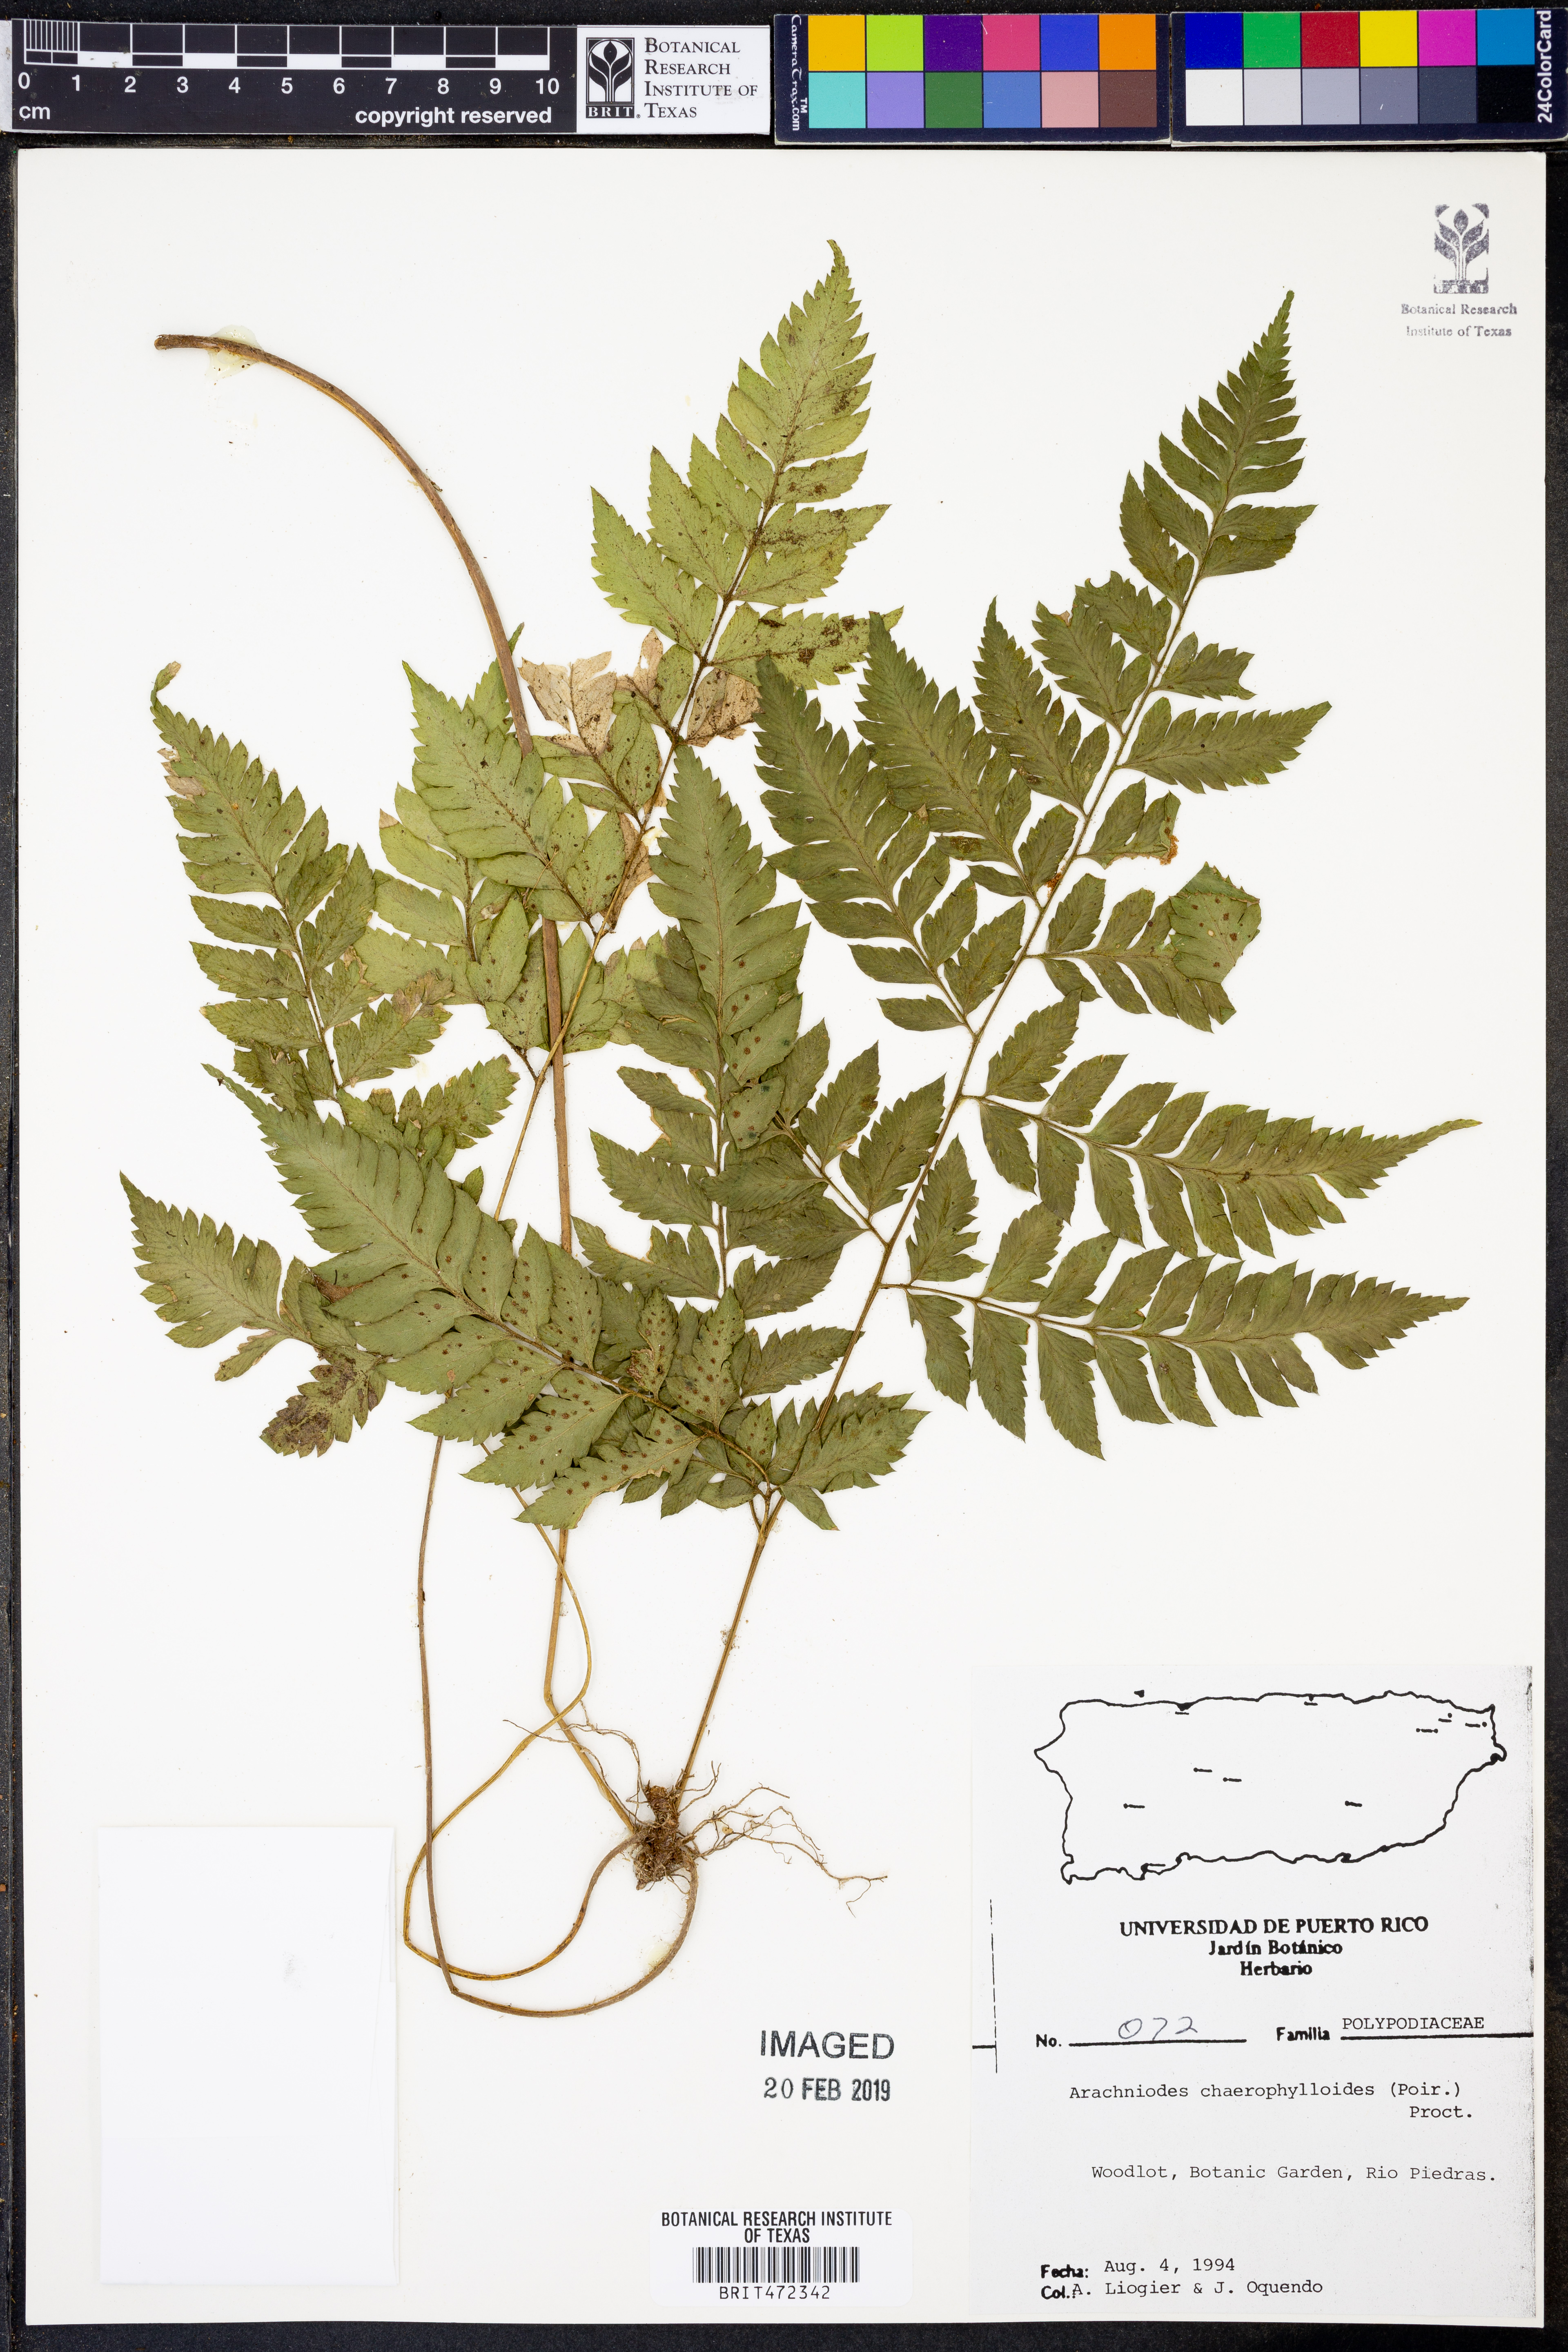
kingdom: Plantae
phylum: Tracheophyta
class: Polypodiopsida
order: Polypodiales
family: Dryopteridaceae
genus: Polystichopsis
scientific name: Polystichopsis chaerophylloides
